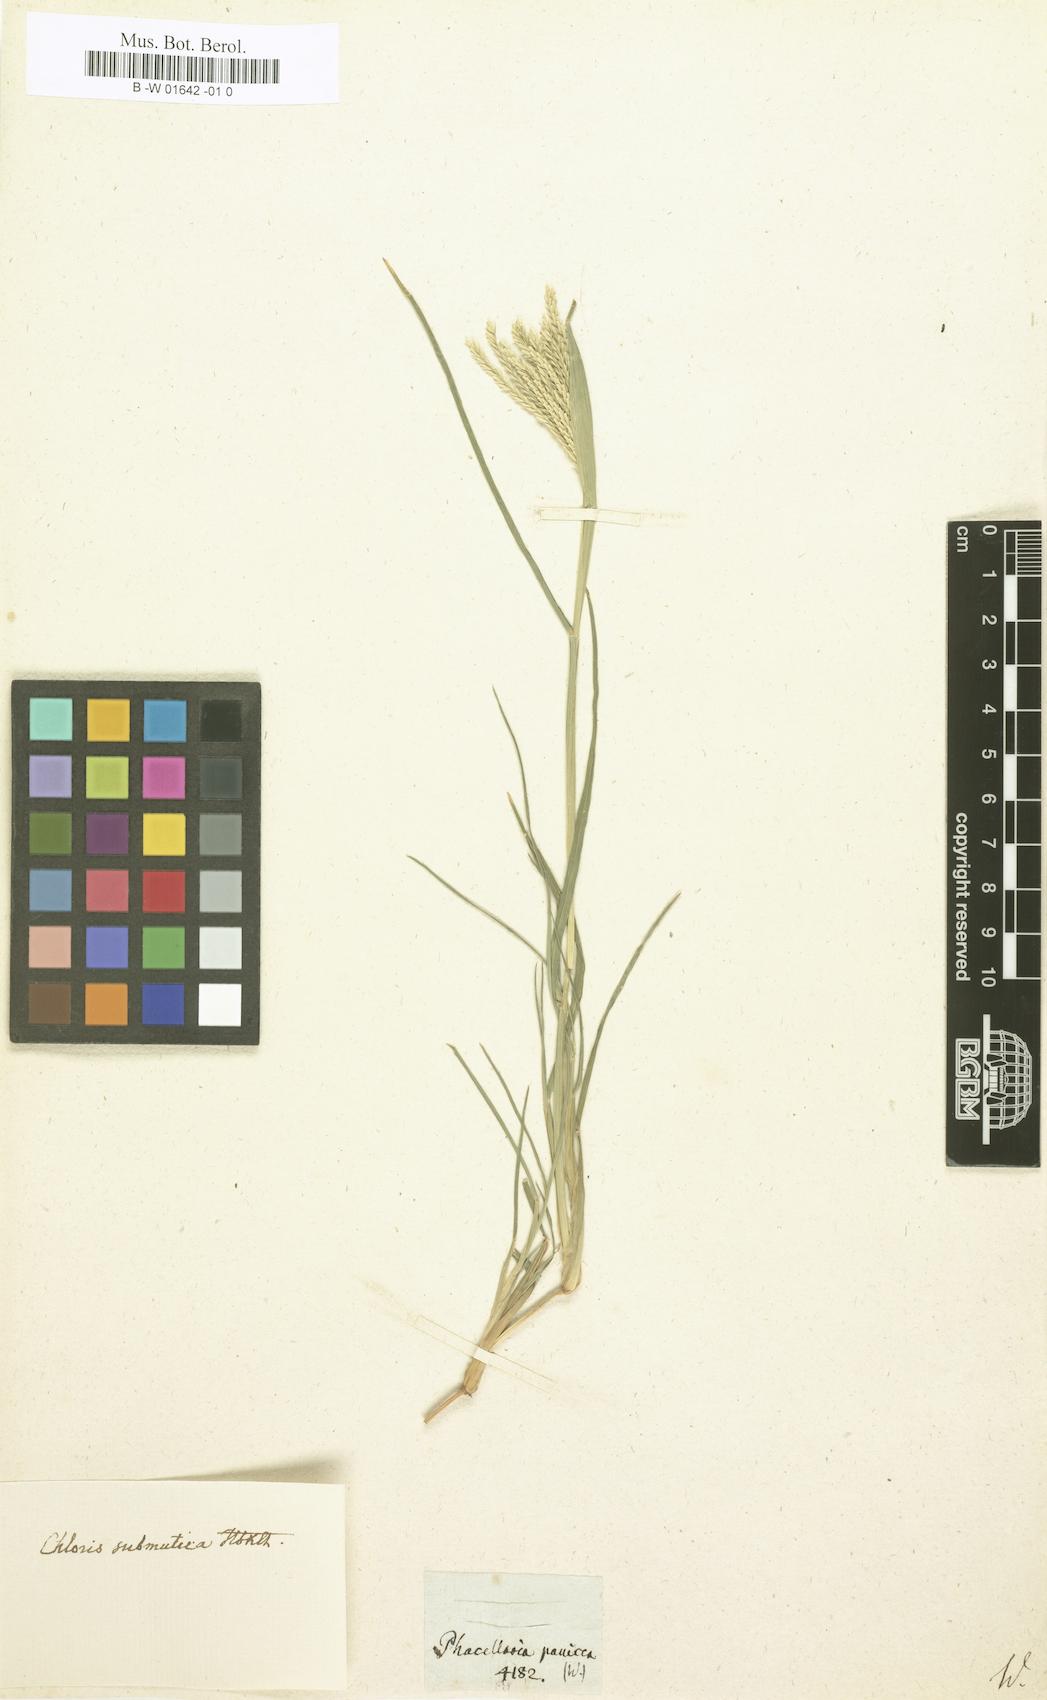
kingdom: Plantae
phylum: Tracheophyta
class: Liliopsida
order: Poales
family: Poaceae
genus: Chloris
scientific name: Chloris submutica
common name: Mexican windmill grass
